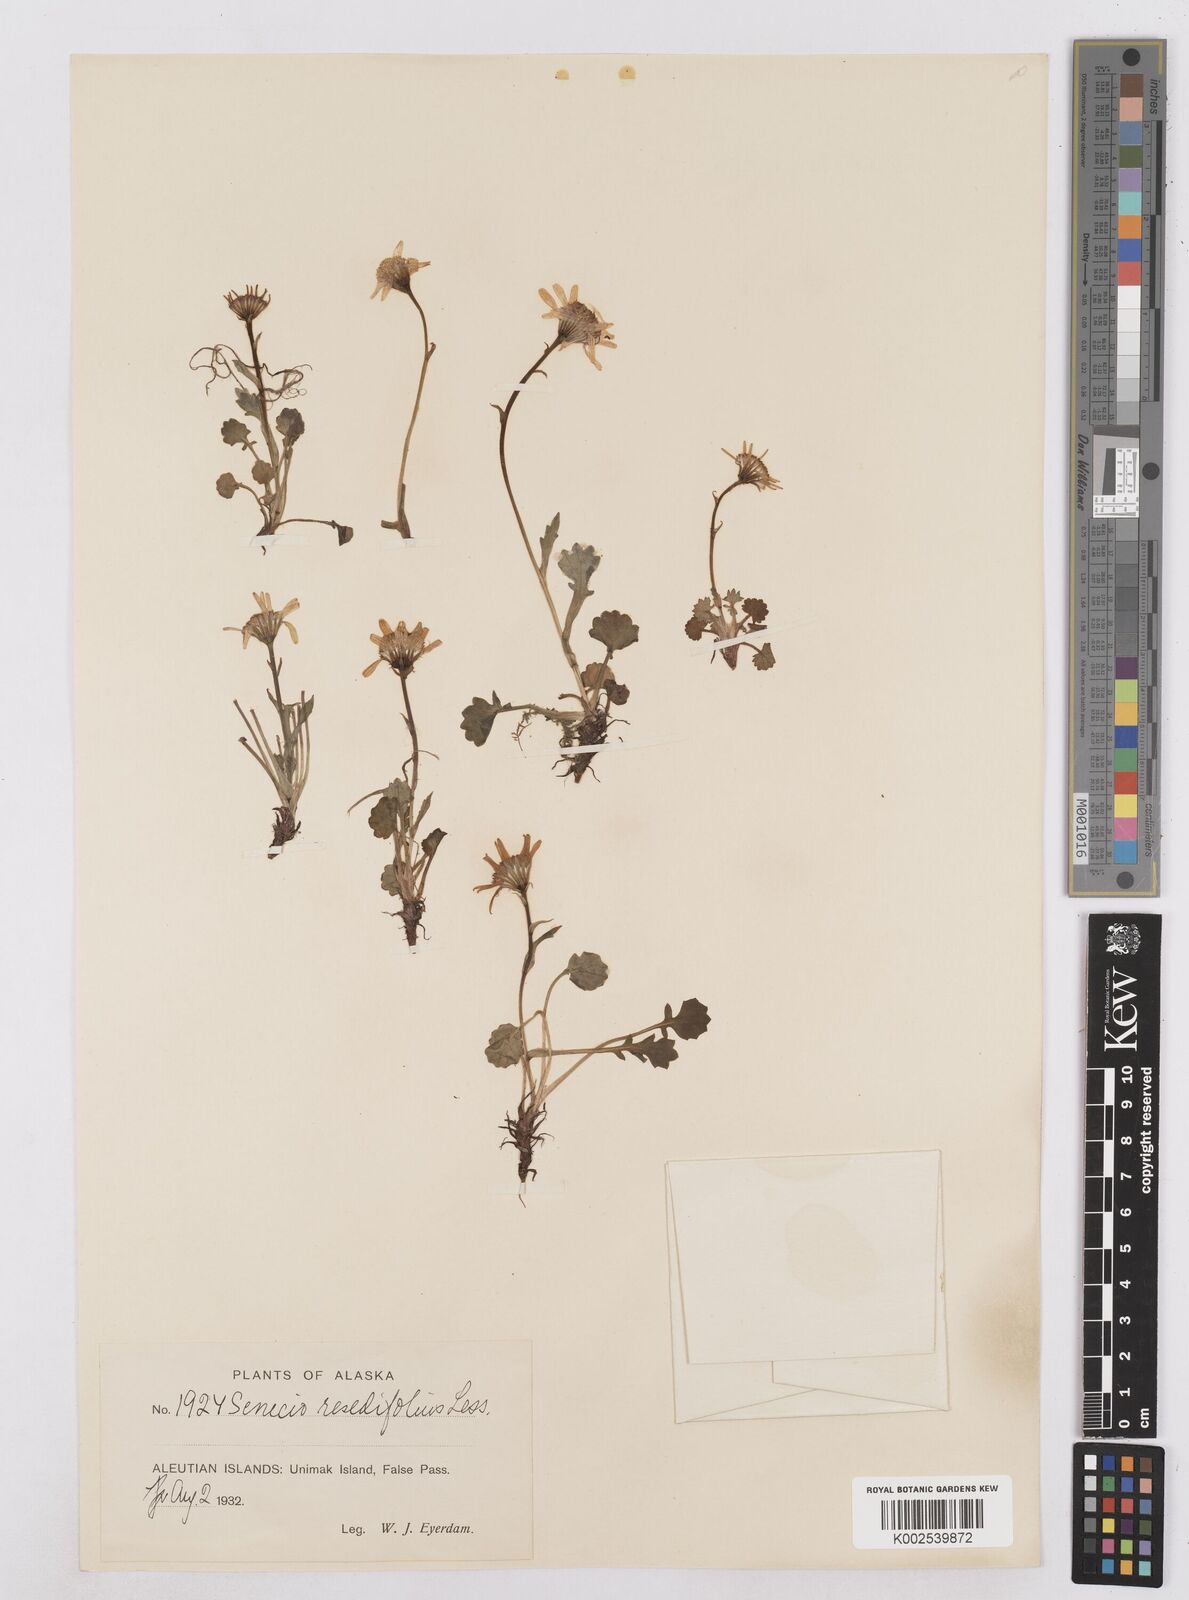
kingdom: Plantae
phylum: Tracheophyta
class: Magnoliopsida
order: Asterales
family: Asteraceae
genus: Packera
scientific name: Packera cymbalaria
